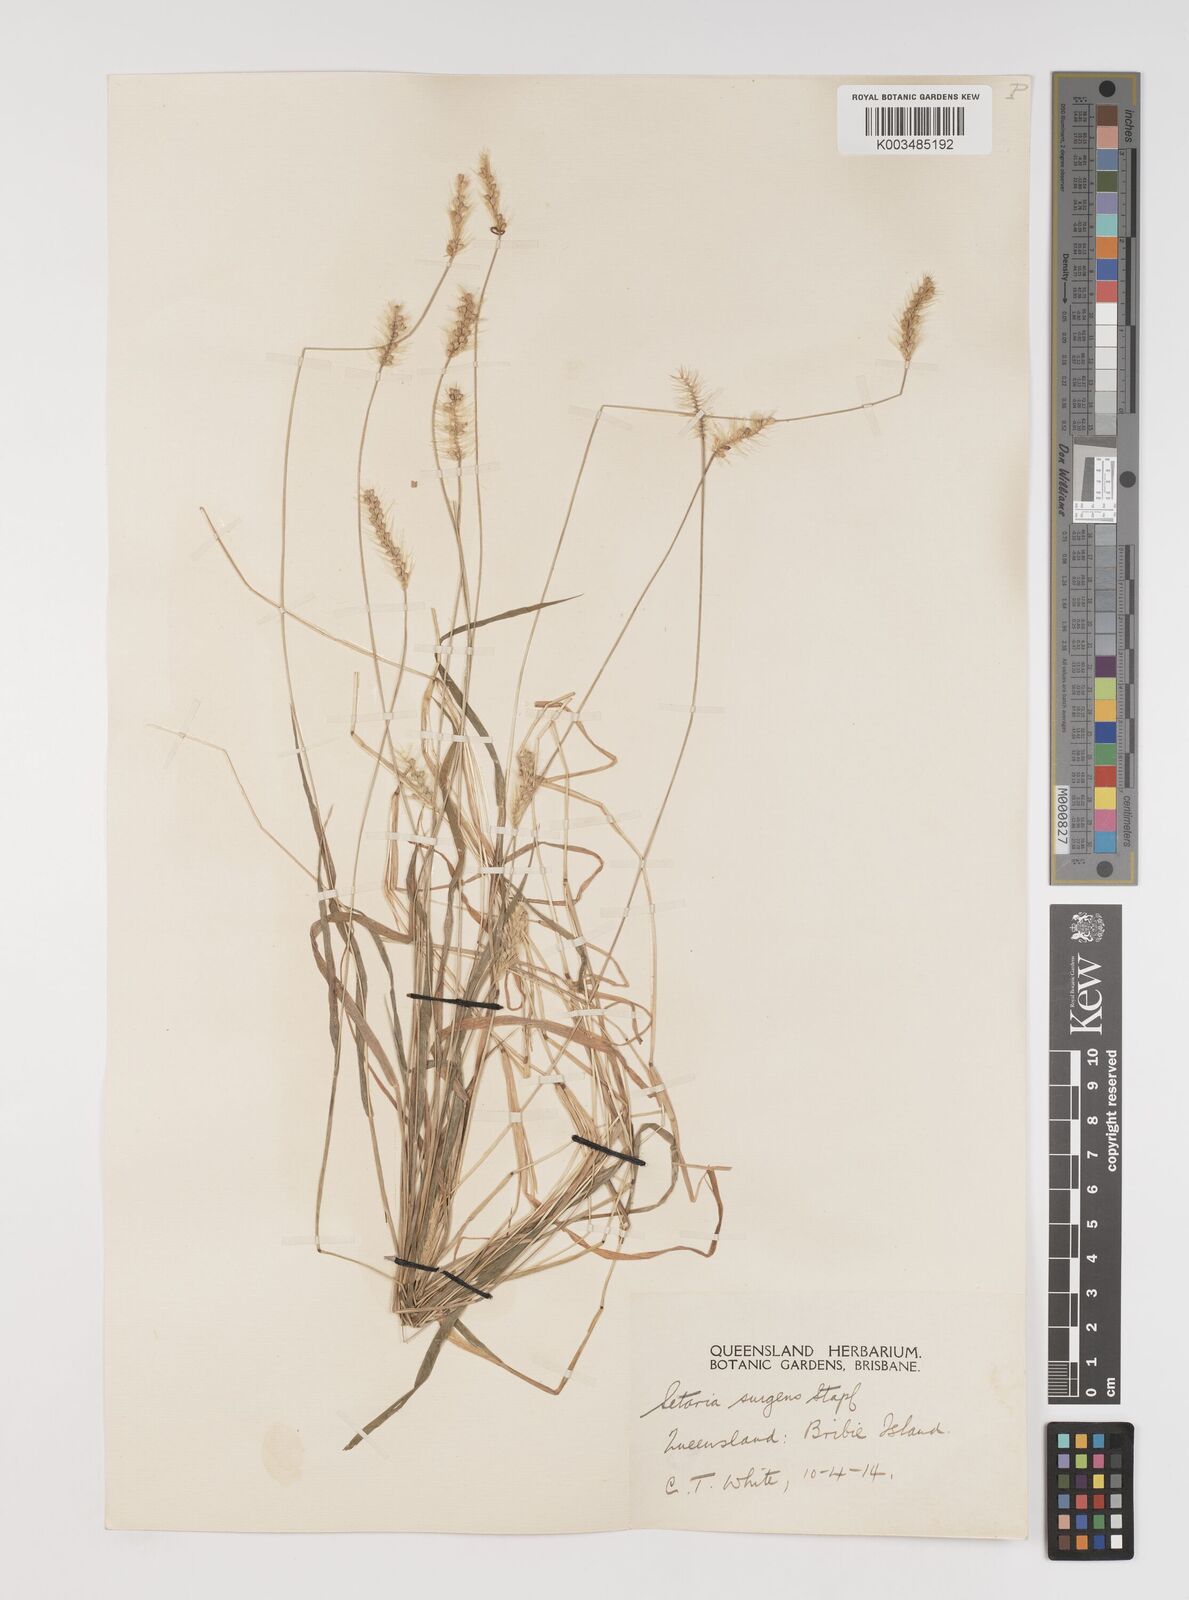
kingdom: Plantae
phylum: Tracheophyta
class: Liliopsida
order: Poales
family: Poaceae
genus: Setaria
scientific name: Setaria apiculata
